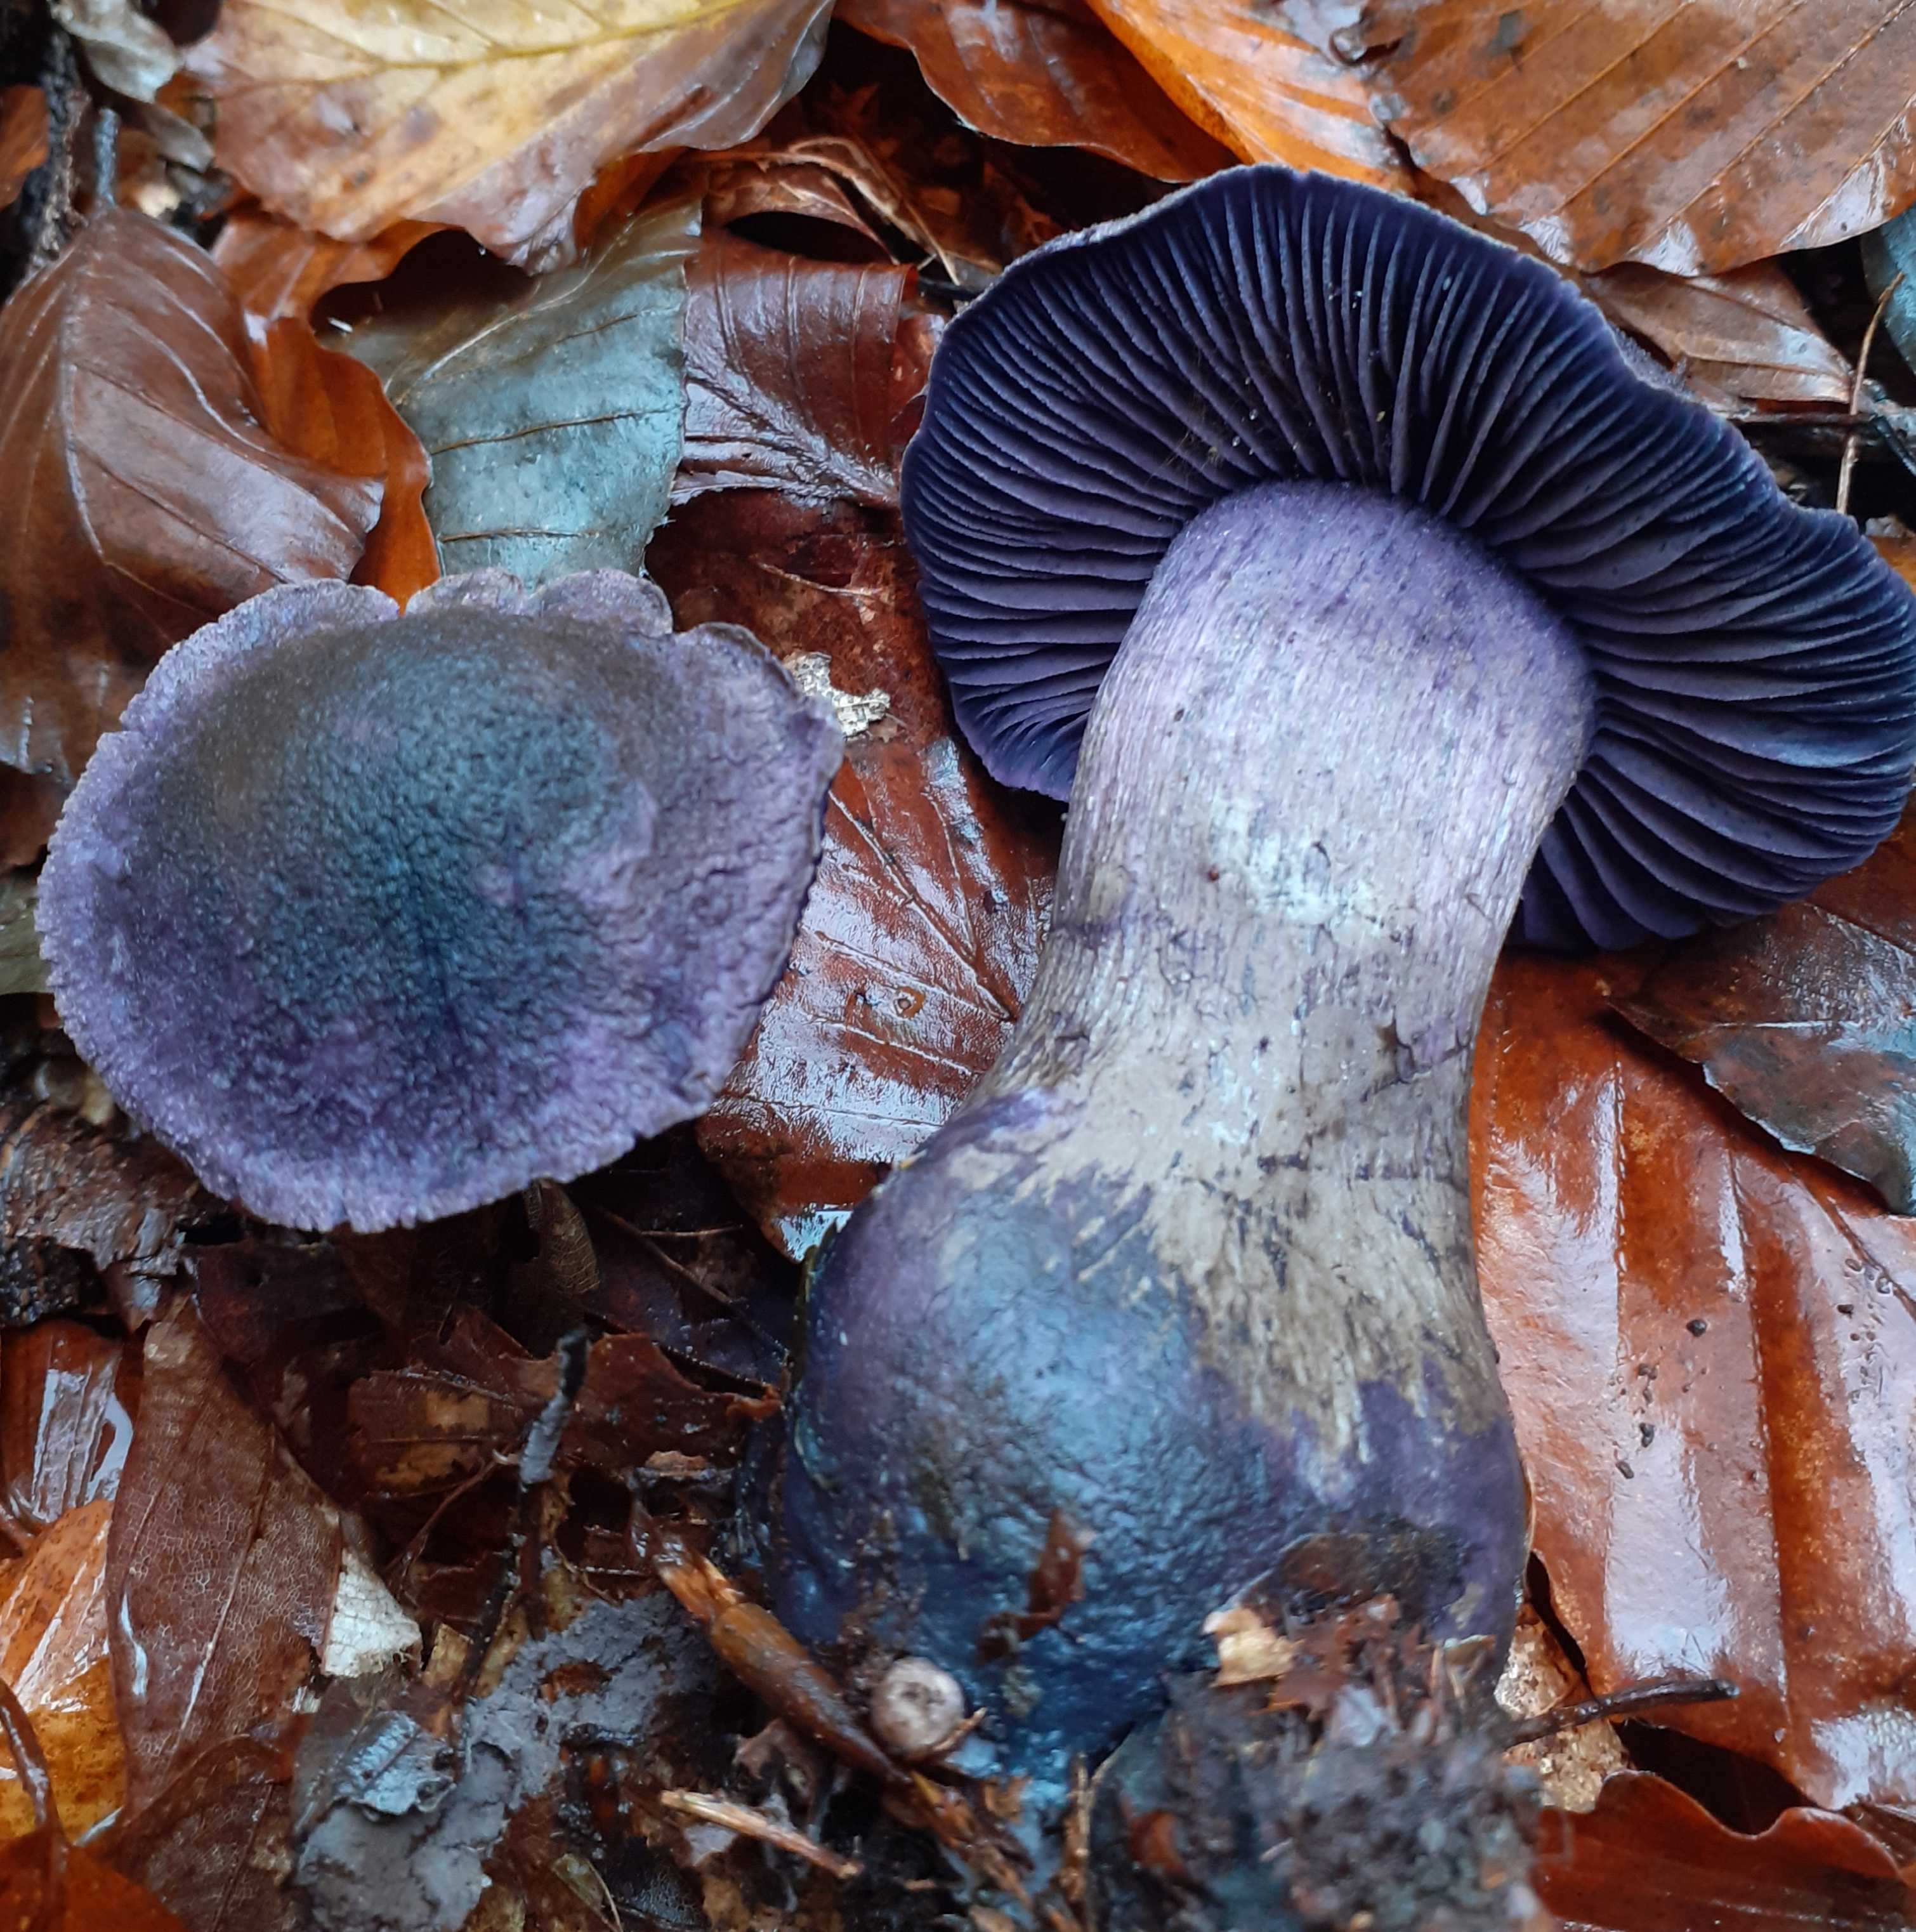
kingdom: Fungi
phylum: Basidiomycota
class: Agaricomycetes
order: Agaricales
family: Cortinariaceae
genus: Cortinarius
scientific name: Cortinarius violaceus
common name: mørkviolet slørhat
